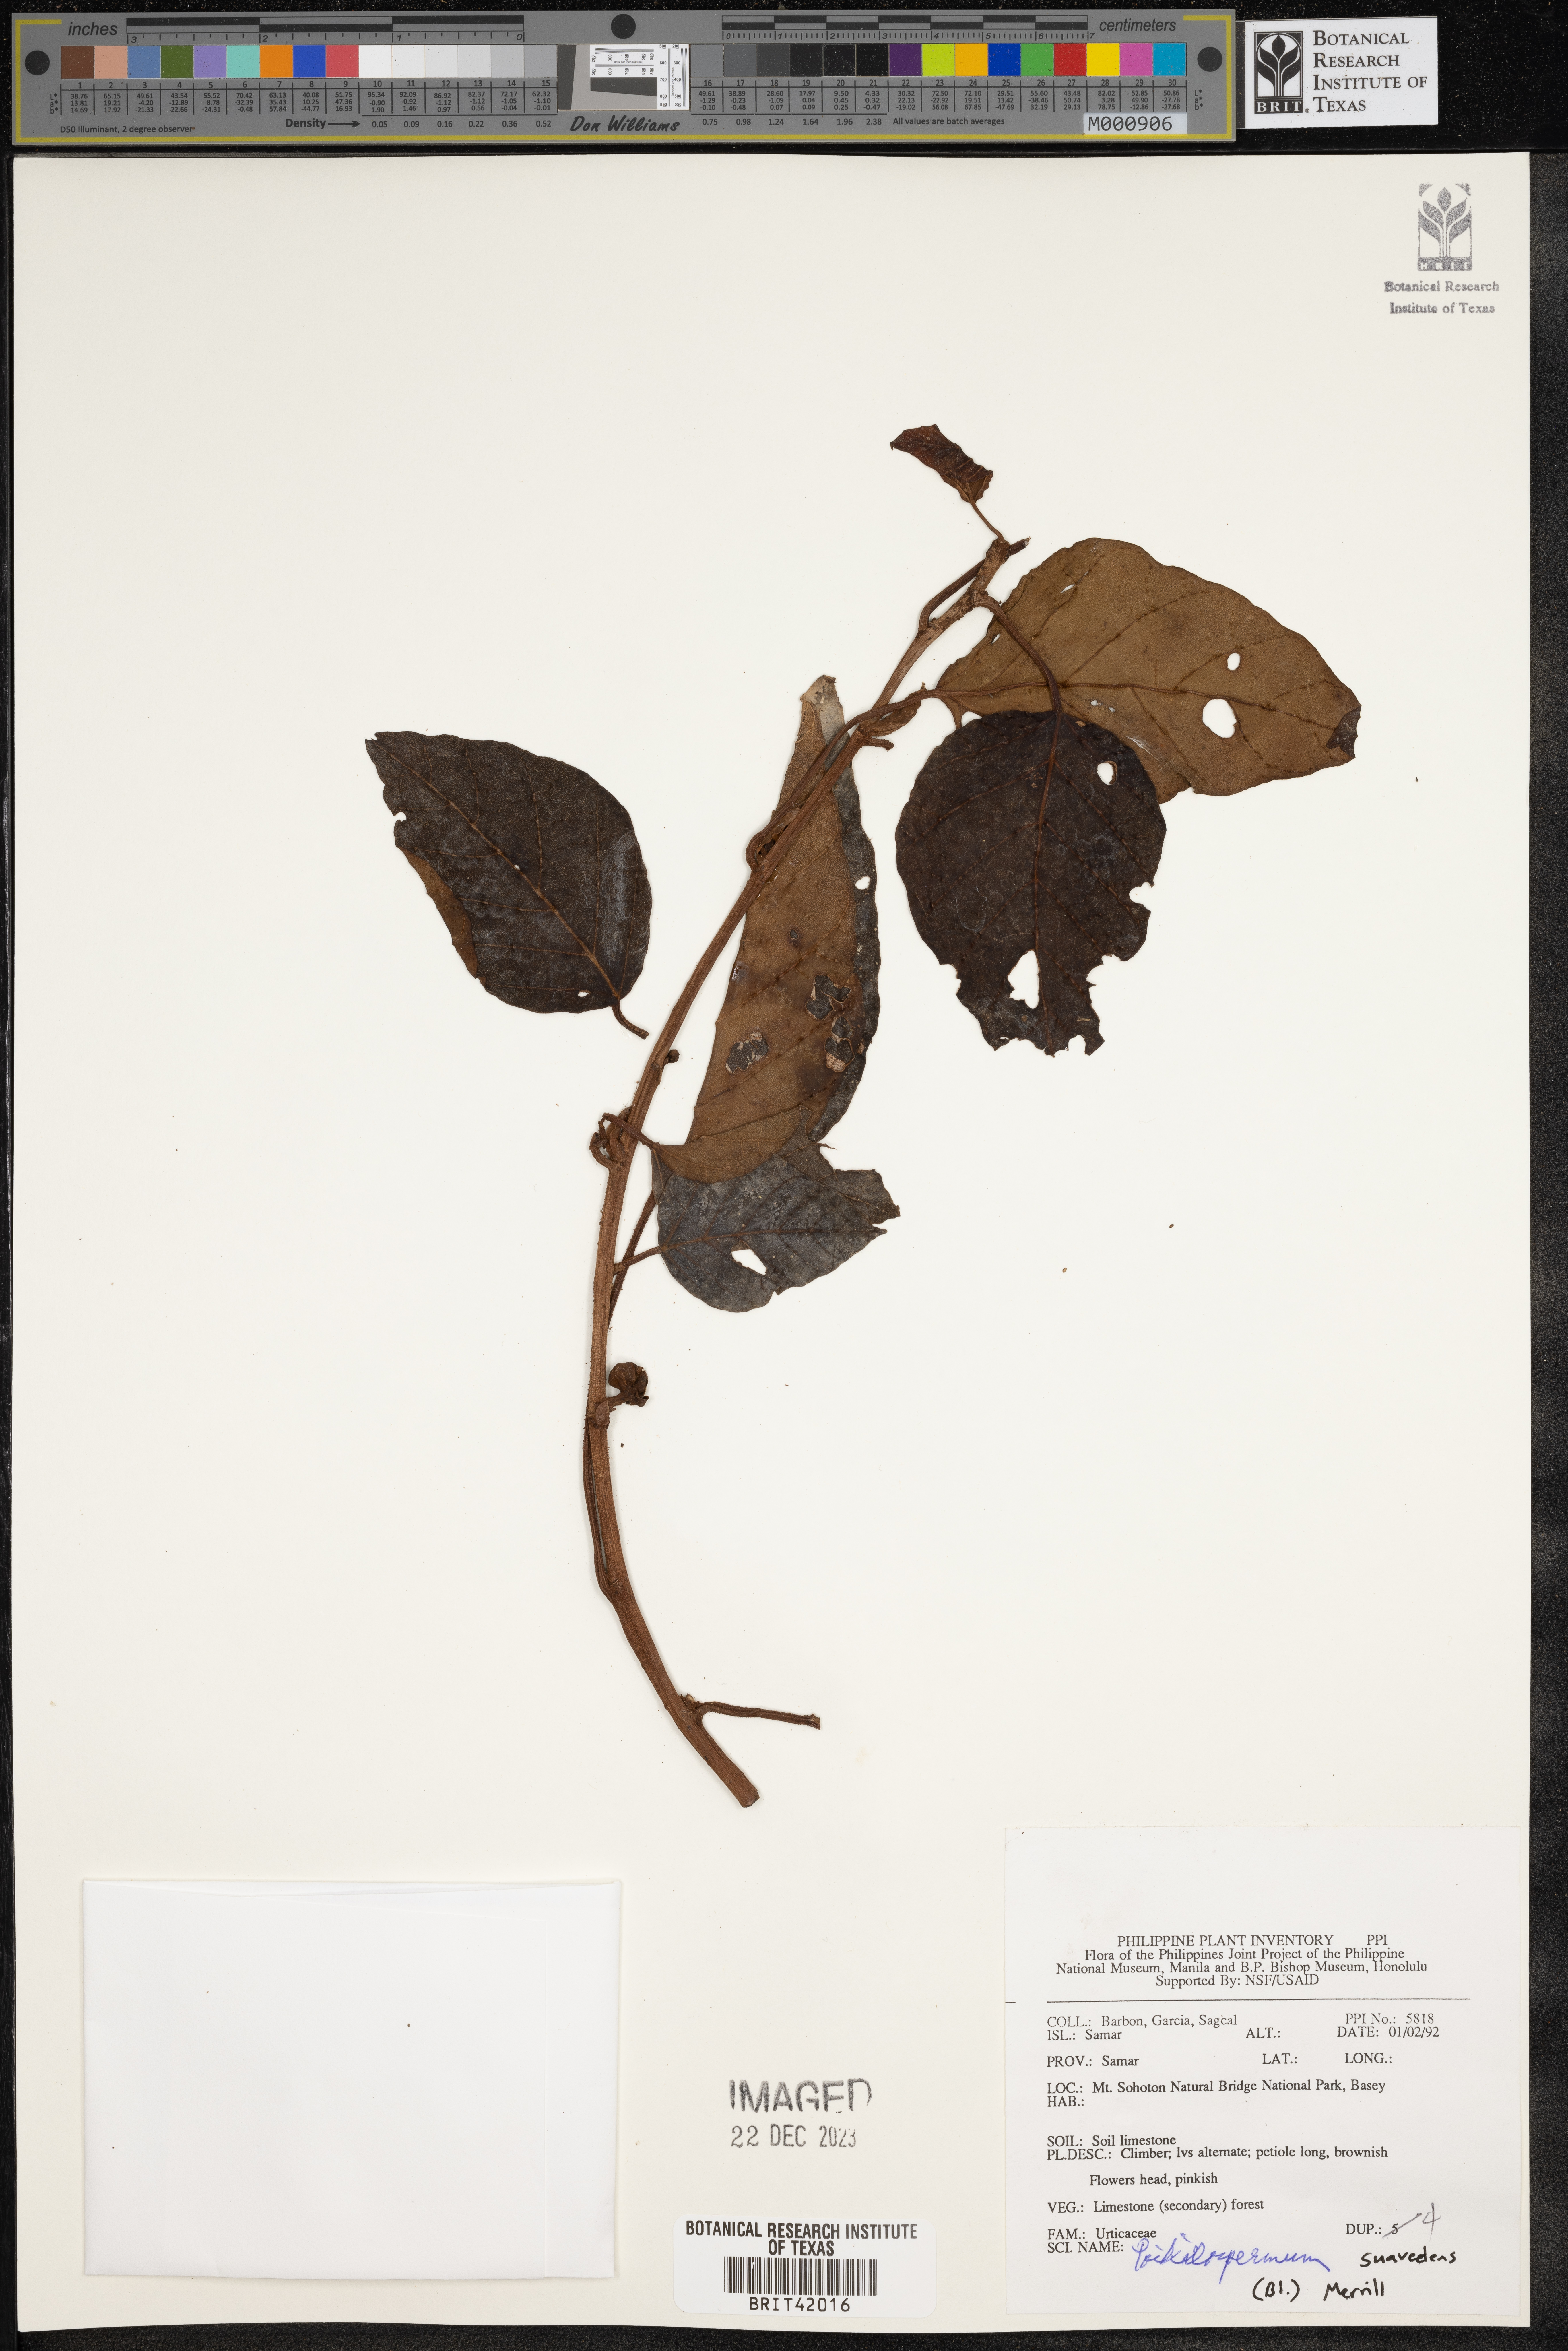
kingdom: Plantae
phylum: Tracheophyta
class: Magnoliopsida
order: Rosales
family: Urticaceae
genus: Poikilospermum
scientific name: Poikilospermum suaveolens
